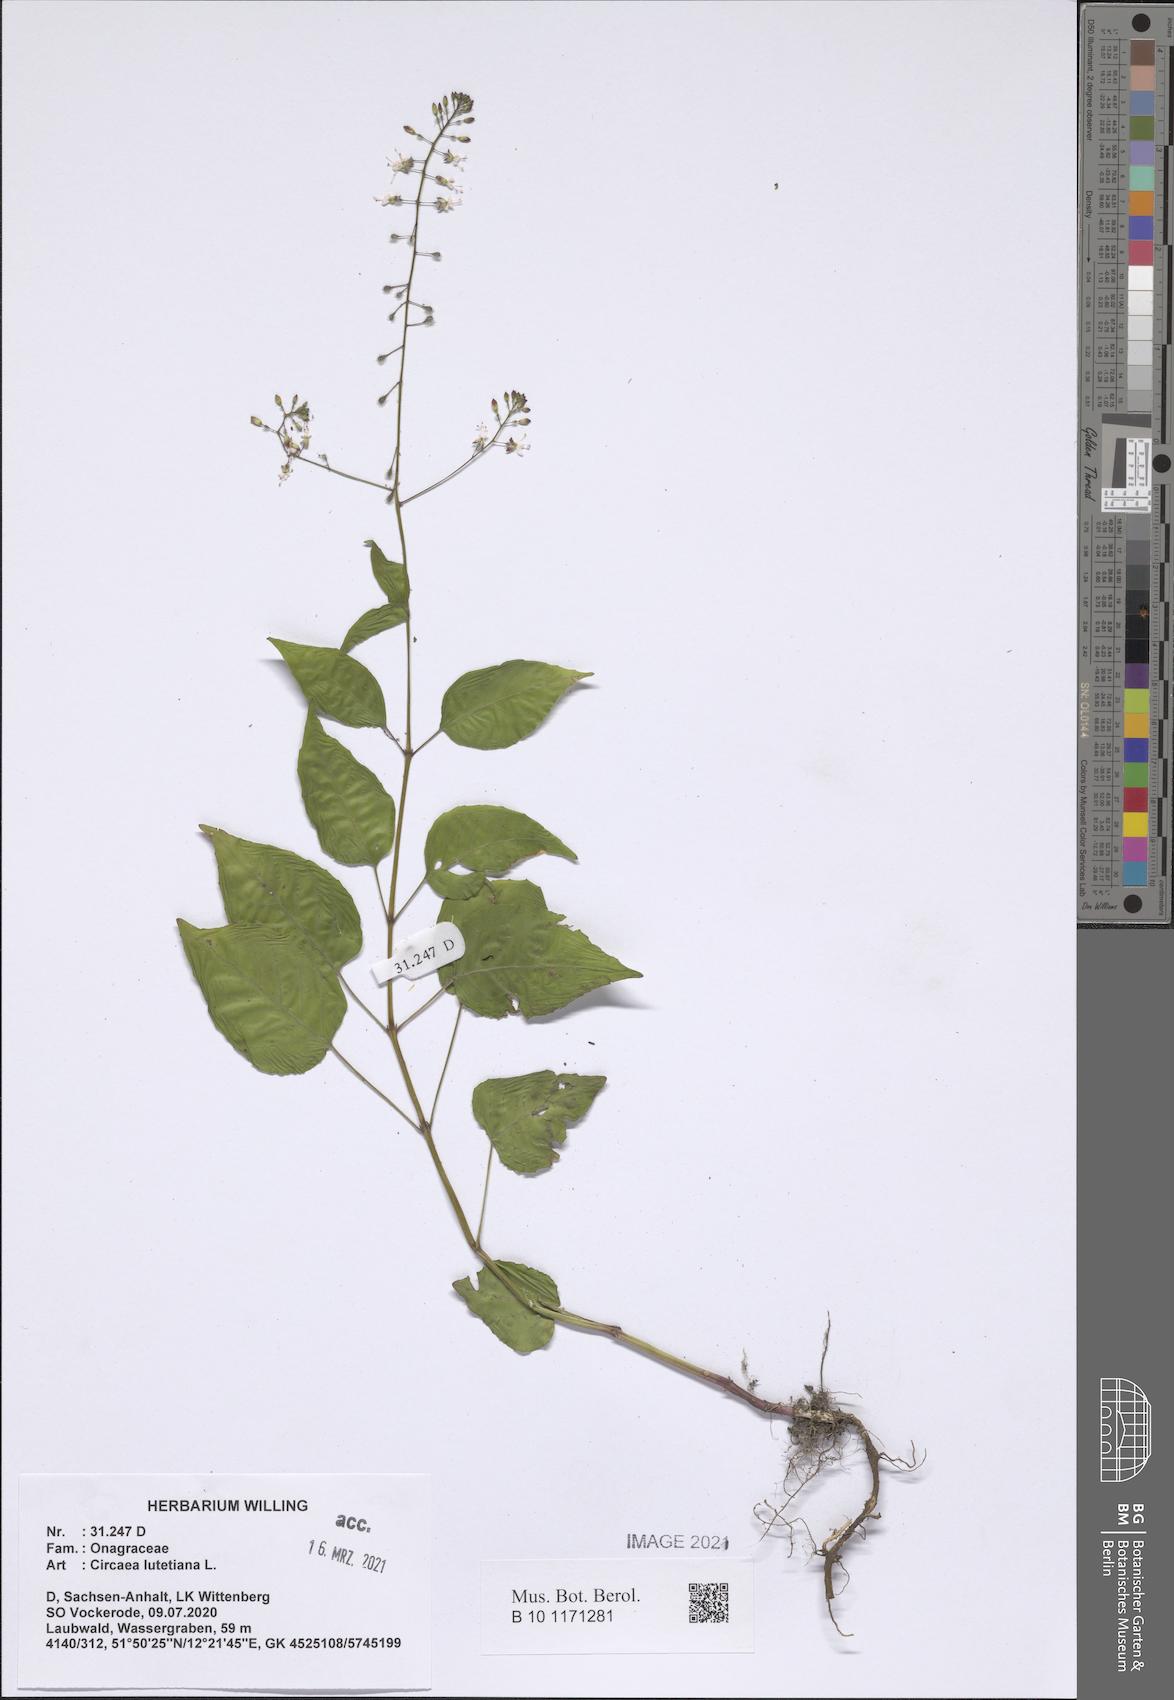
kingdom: Plantae
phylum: Tracheophyta
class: Magnoliopsida
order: Myrtales
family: Onagraceae
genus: Circaea
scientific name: Circaea lutetiana
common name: Enchanter's-nightshade
